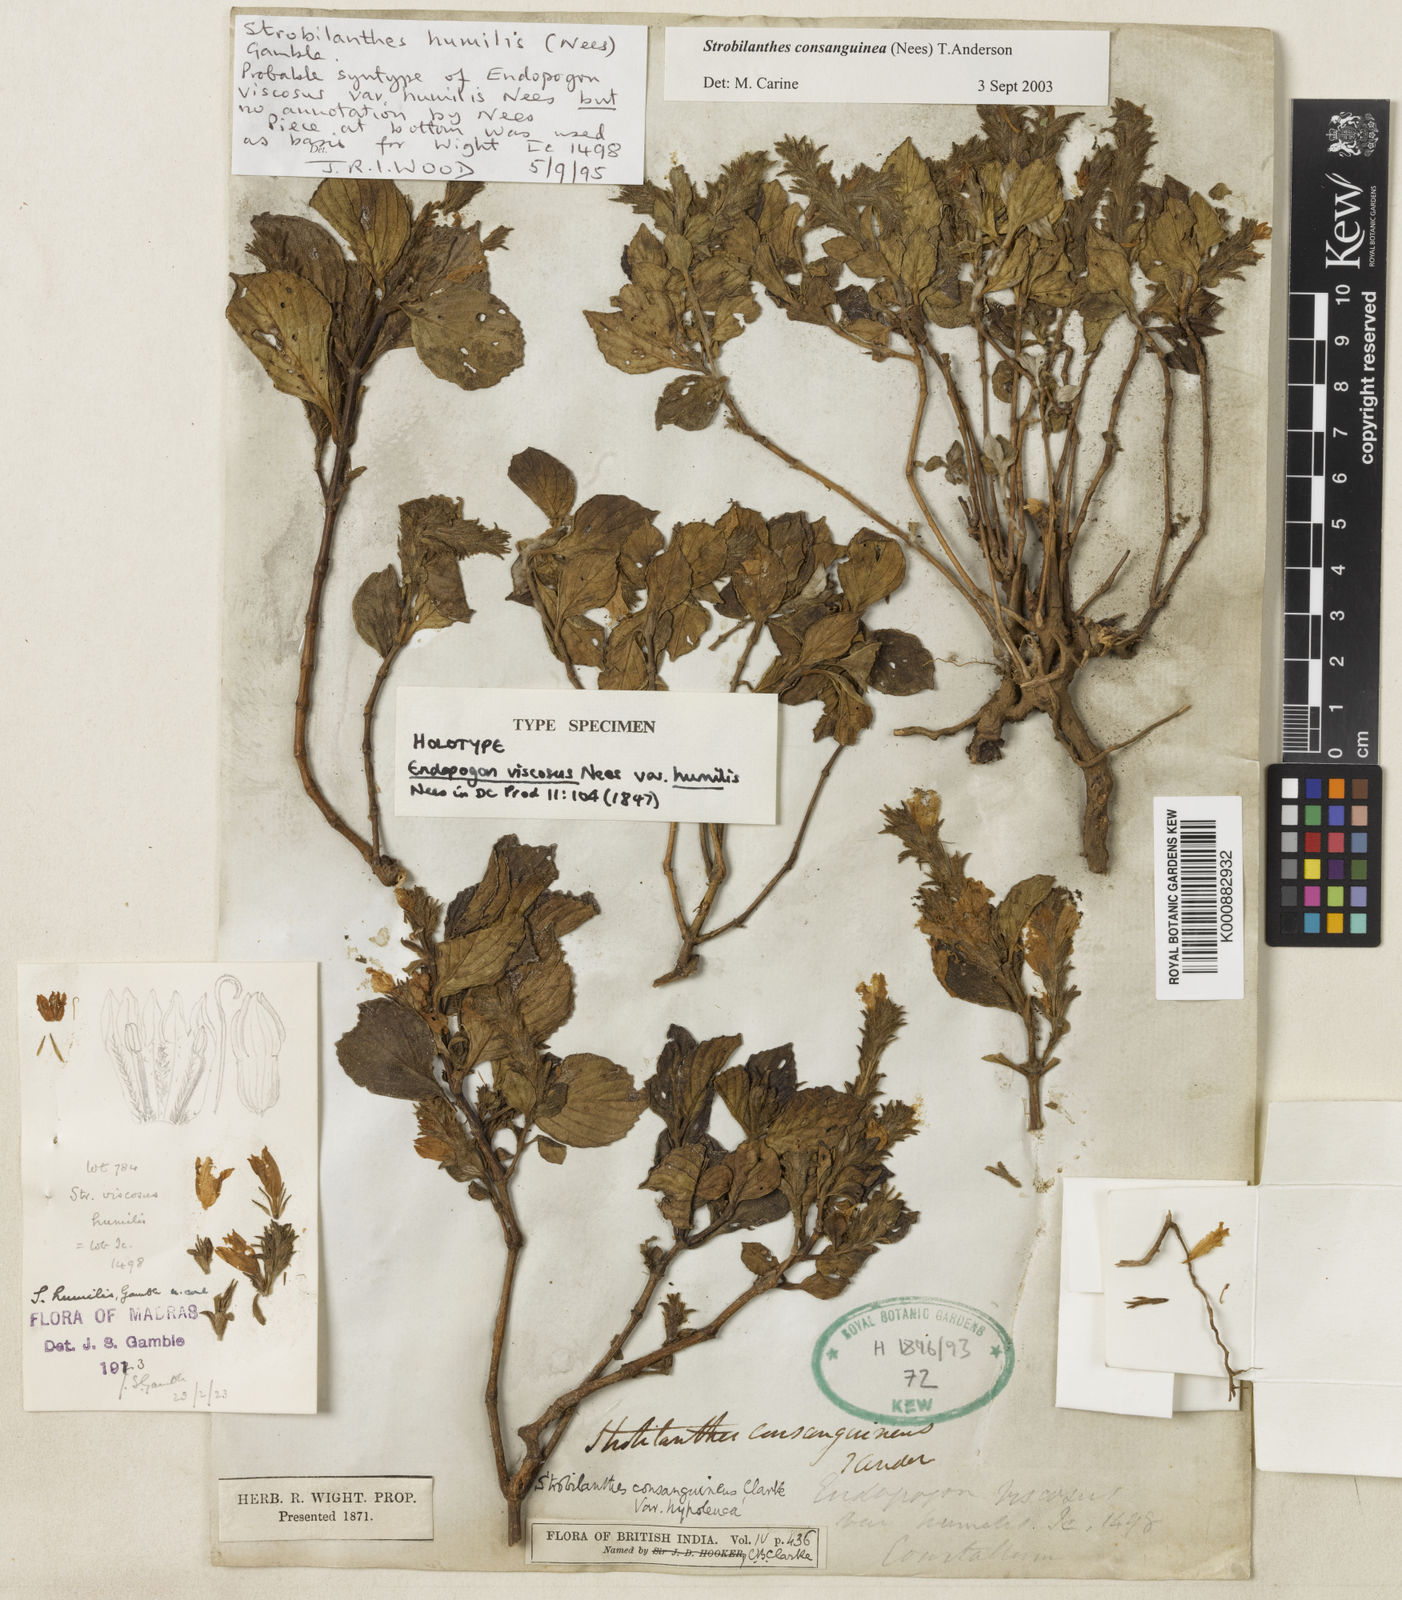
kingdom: Plantae
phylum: Tracheophyta
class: Magnoliopsida
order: Lamiales
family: Acanthaceae
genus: Strobilanthes
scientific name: Strobilanthes consanguinea
